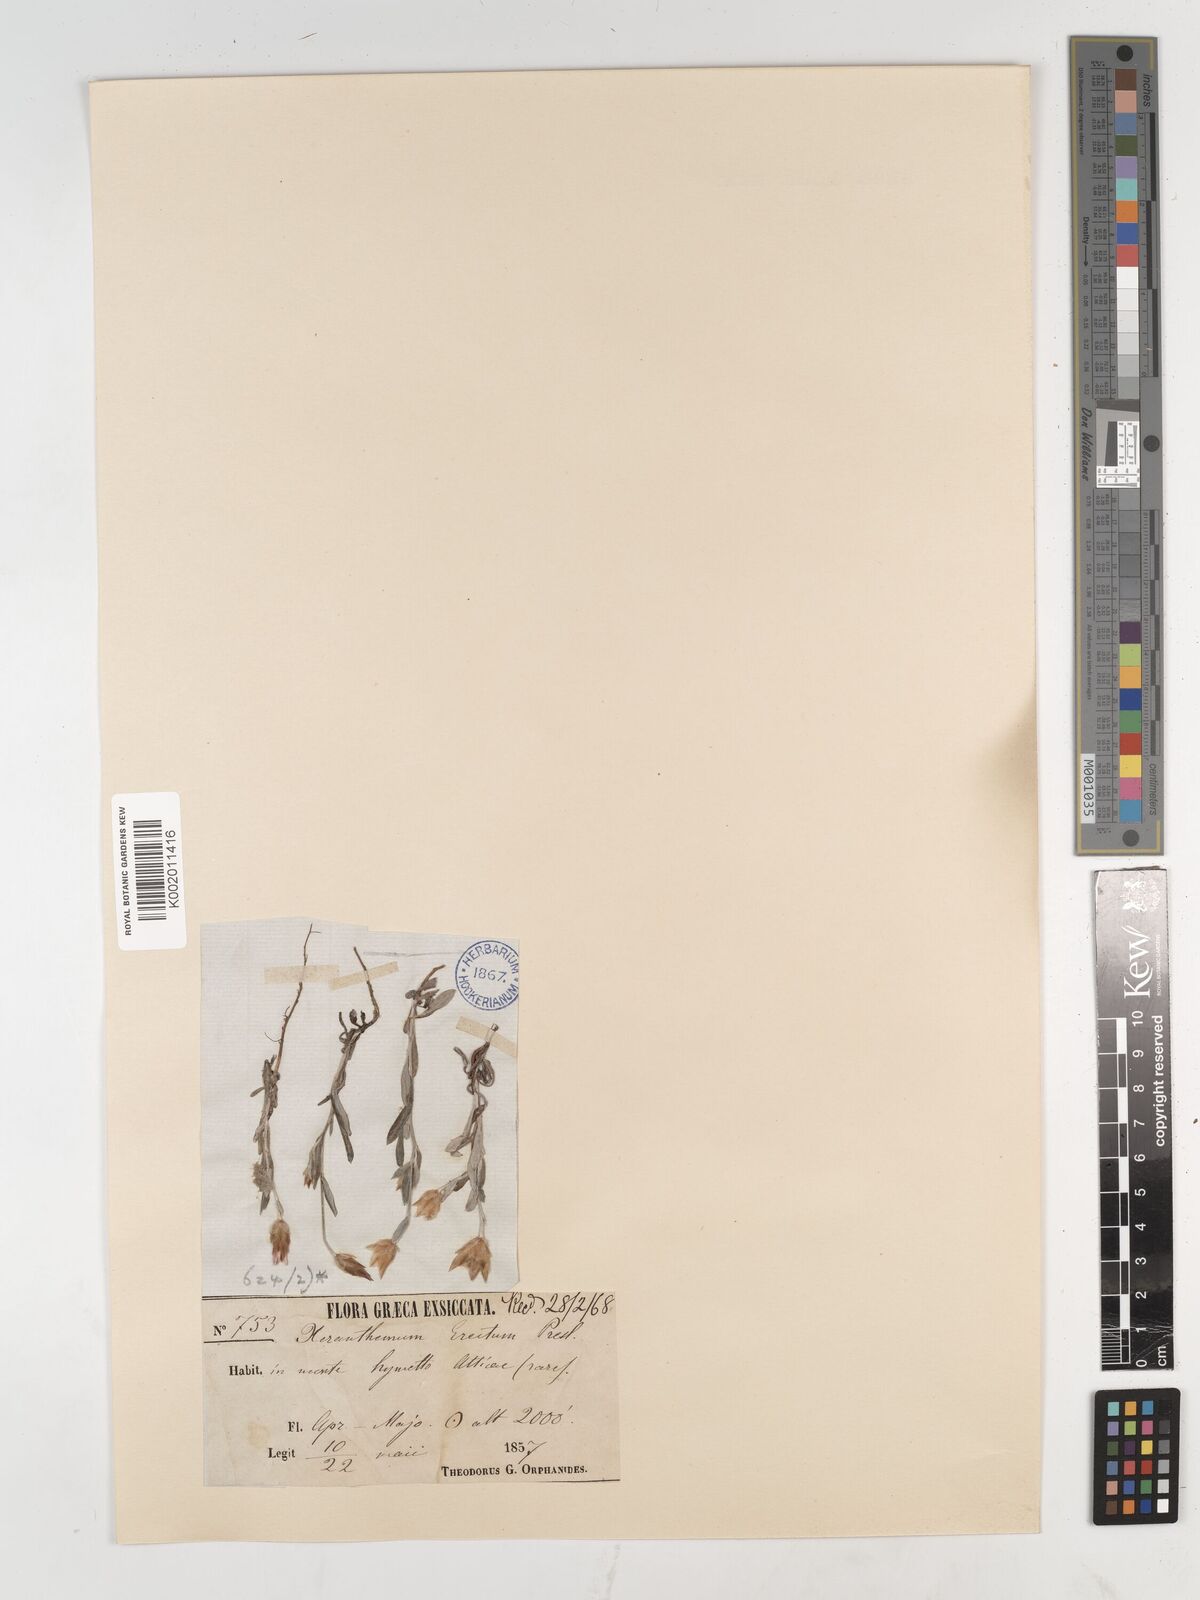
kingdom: Plantae
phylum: Tracheophyta
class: Magnoliopsida
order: Asterales
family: Asteraceae
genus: Xeranthemum
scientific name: Xeranthemum inapertum
